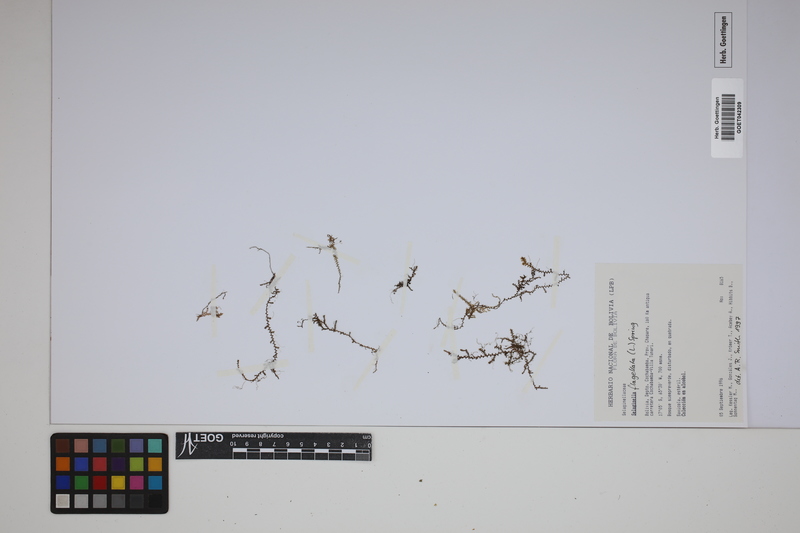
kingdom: Plantae
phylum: Tracheophyta
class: Lycopodiopsida
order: Selaginellales
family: Selaginellaceae
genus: Selaginella
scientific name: Selaginella flagellata
